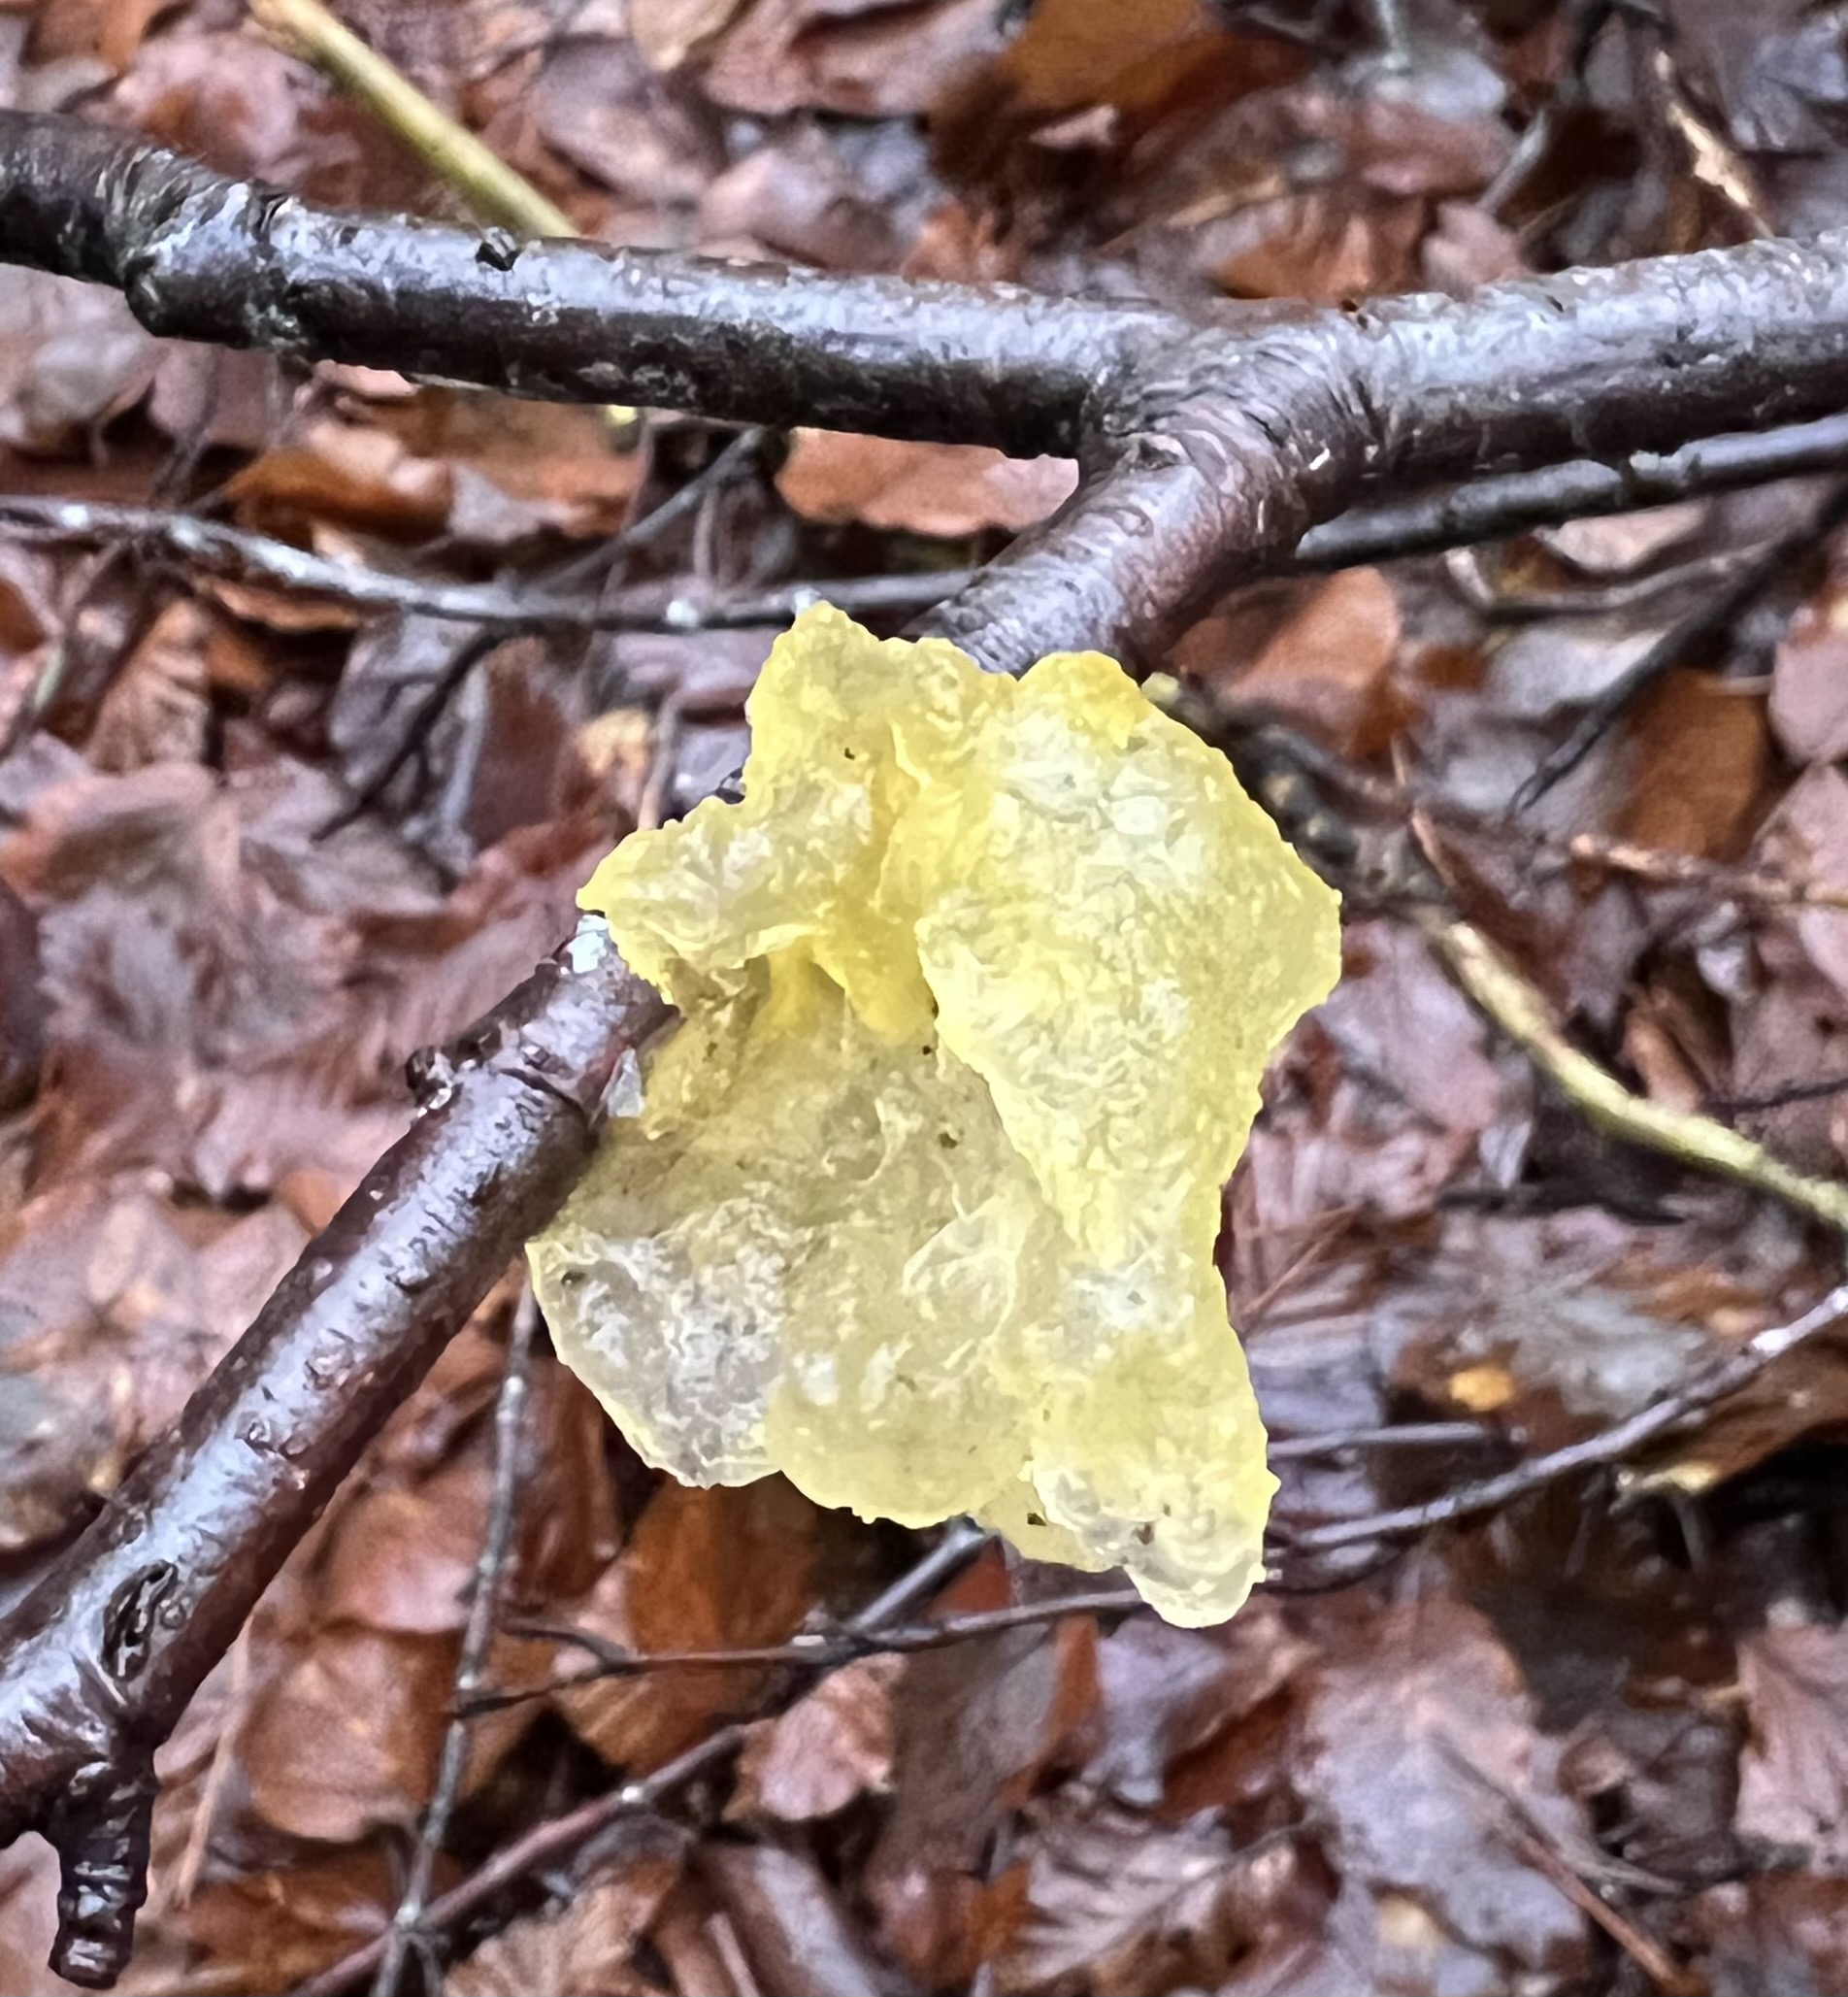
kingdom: Fungi
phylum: Basidiomycota
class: Tremellomycetes
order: Tremellales
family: Tremellaceae
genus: Tremella
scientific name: Tremella mesenterica
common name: gul bævresvamp
